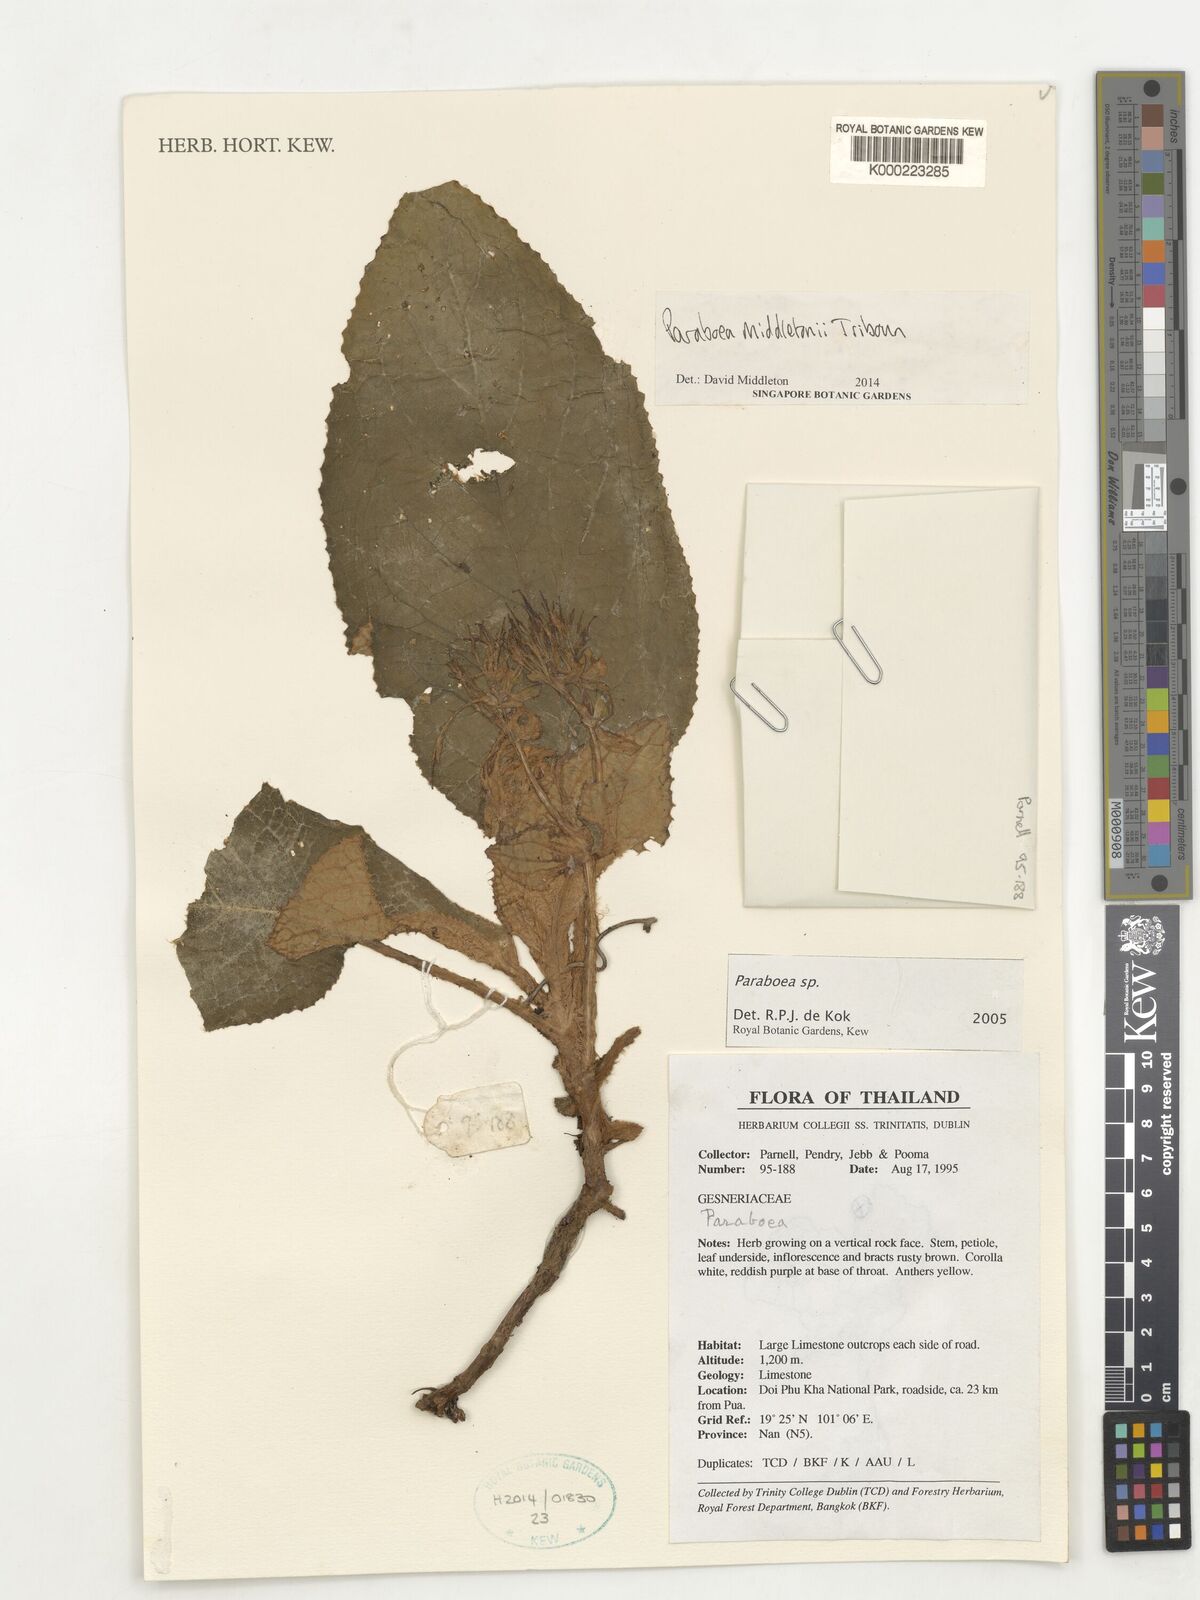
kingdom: Plantae
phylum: Tracheophyta
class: Magnoliopsida
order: Lamiales
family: Gesneriaceae
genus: Paraboea
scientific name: Paraboea middletonii
